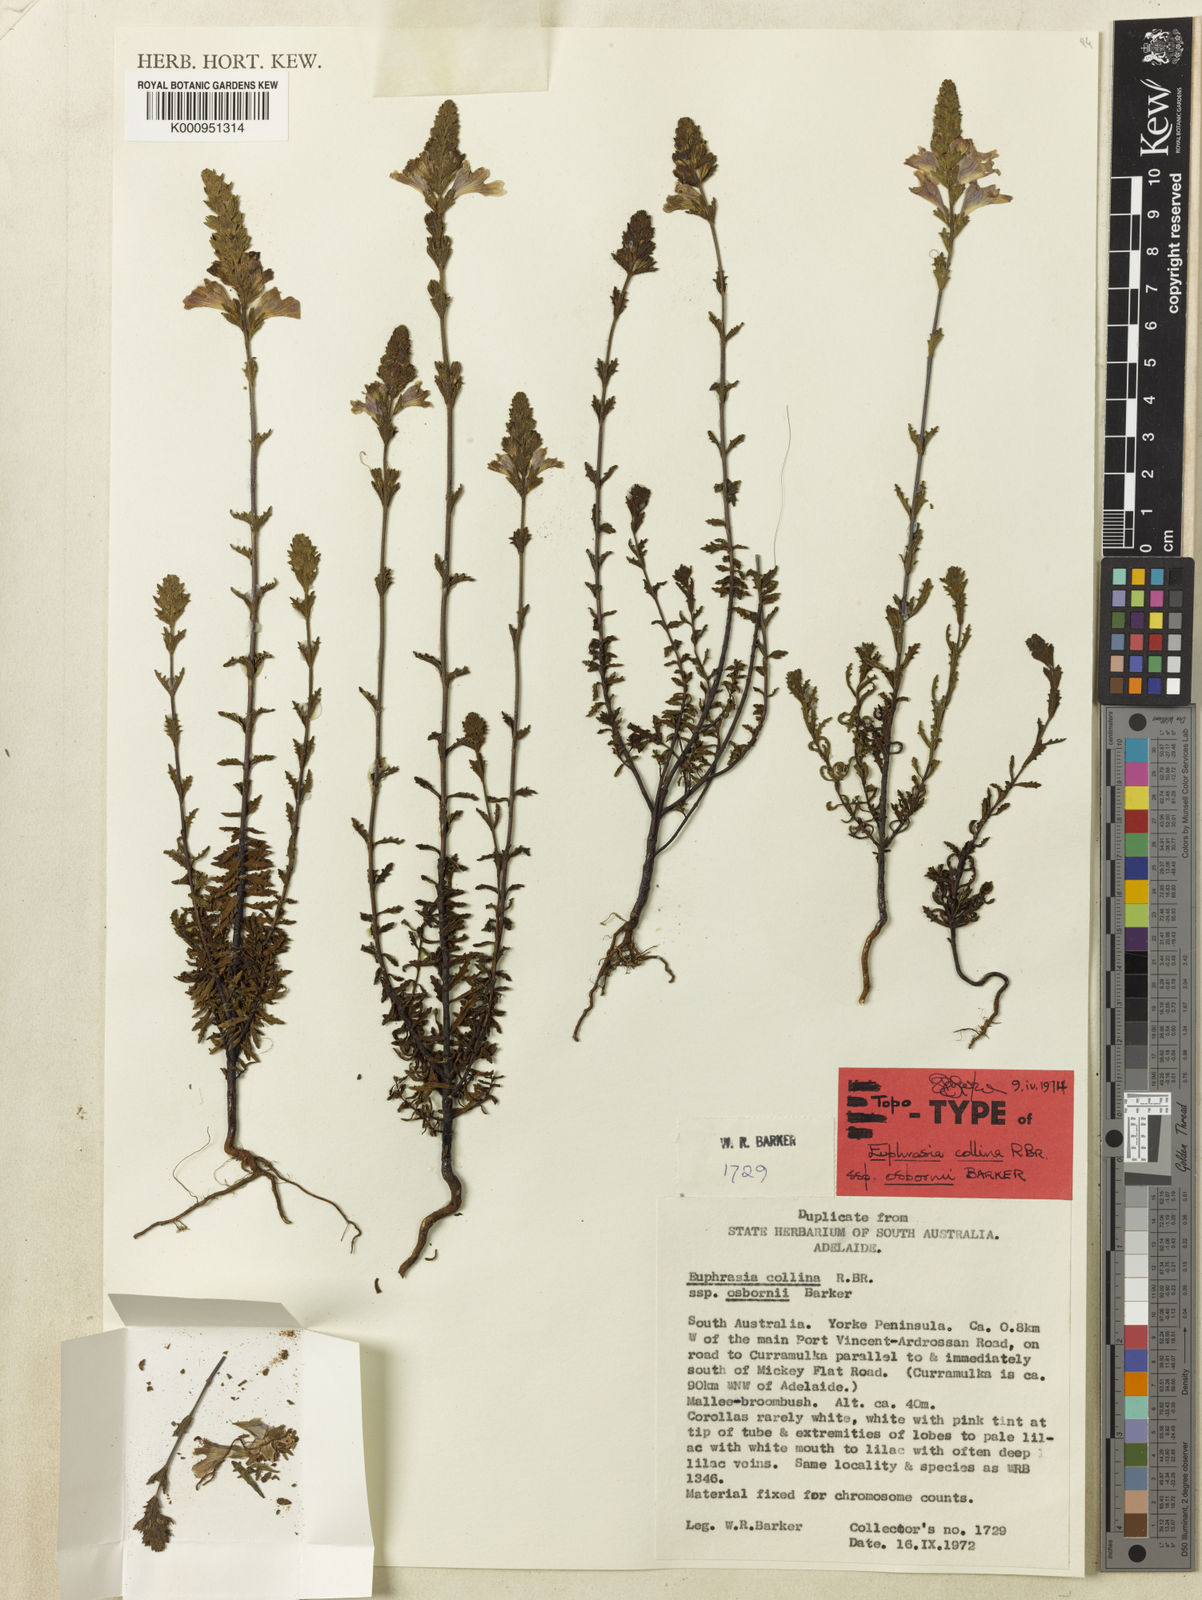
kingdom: Plantae
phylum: Tracheophyta
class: Magnoliopsida
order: Lamiales
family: Orobanchaceae
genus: Euphrasia
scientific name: Euphrasia collina
